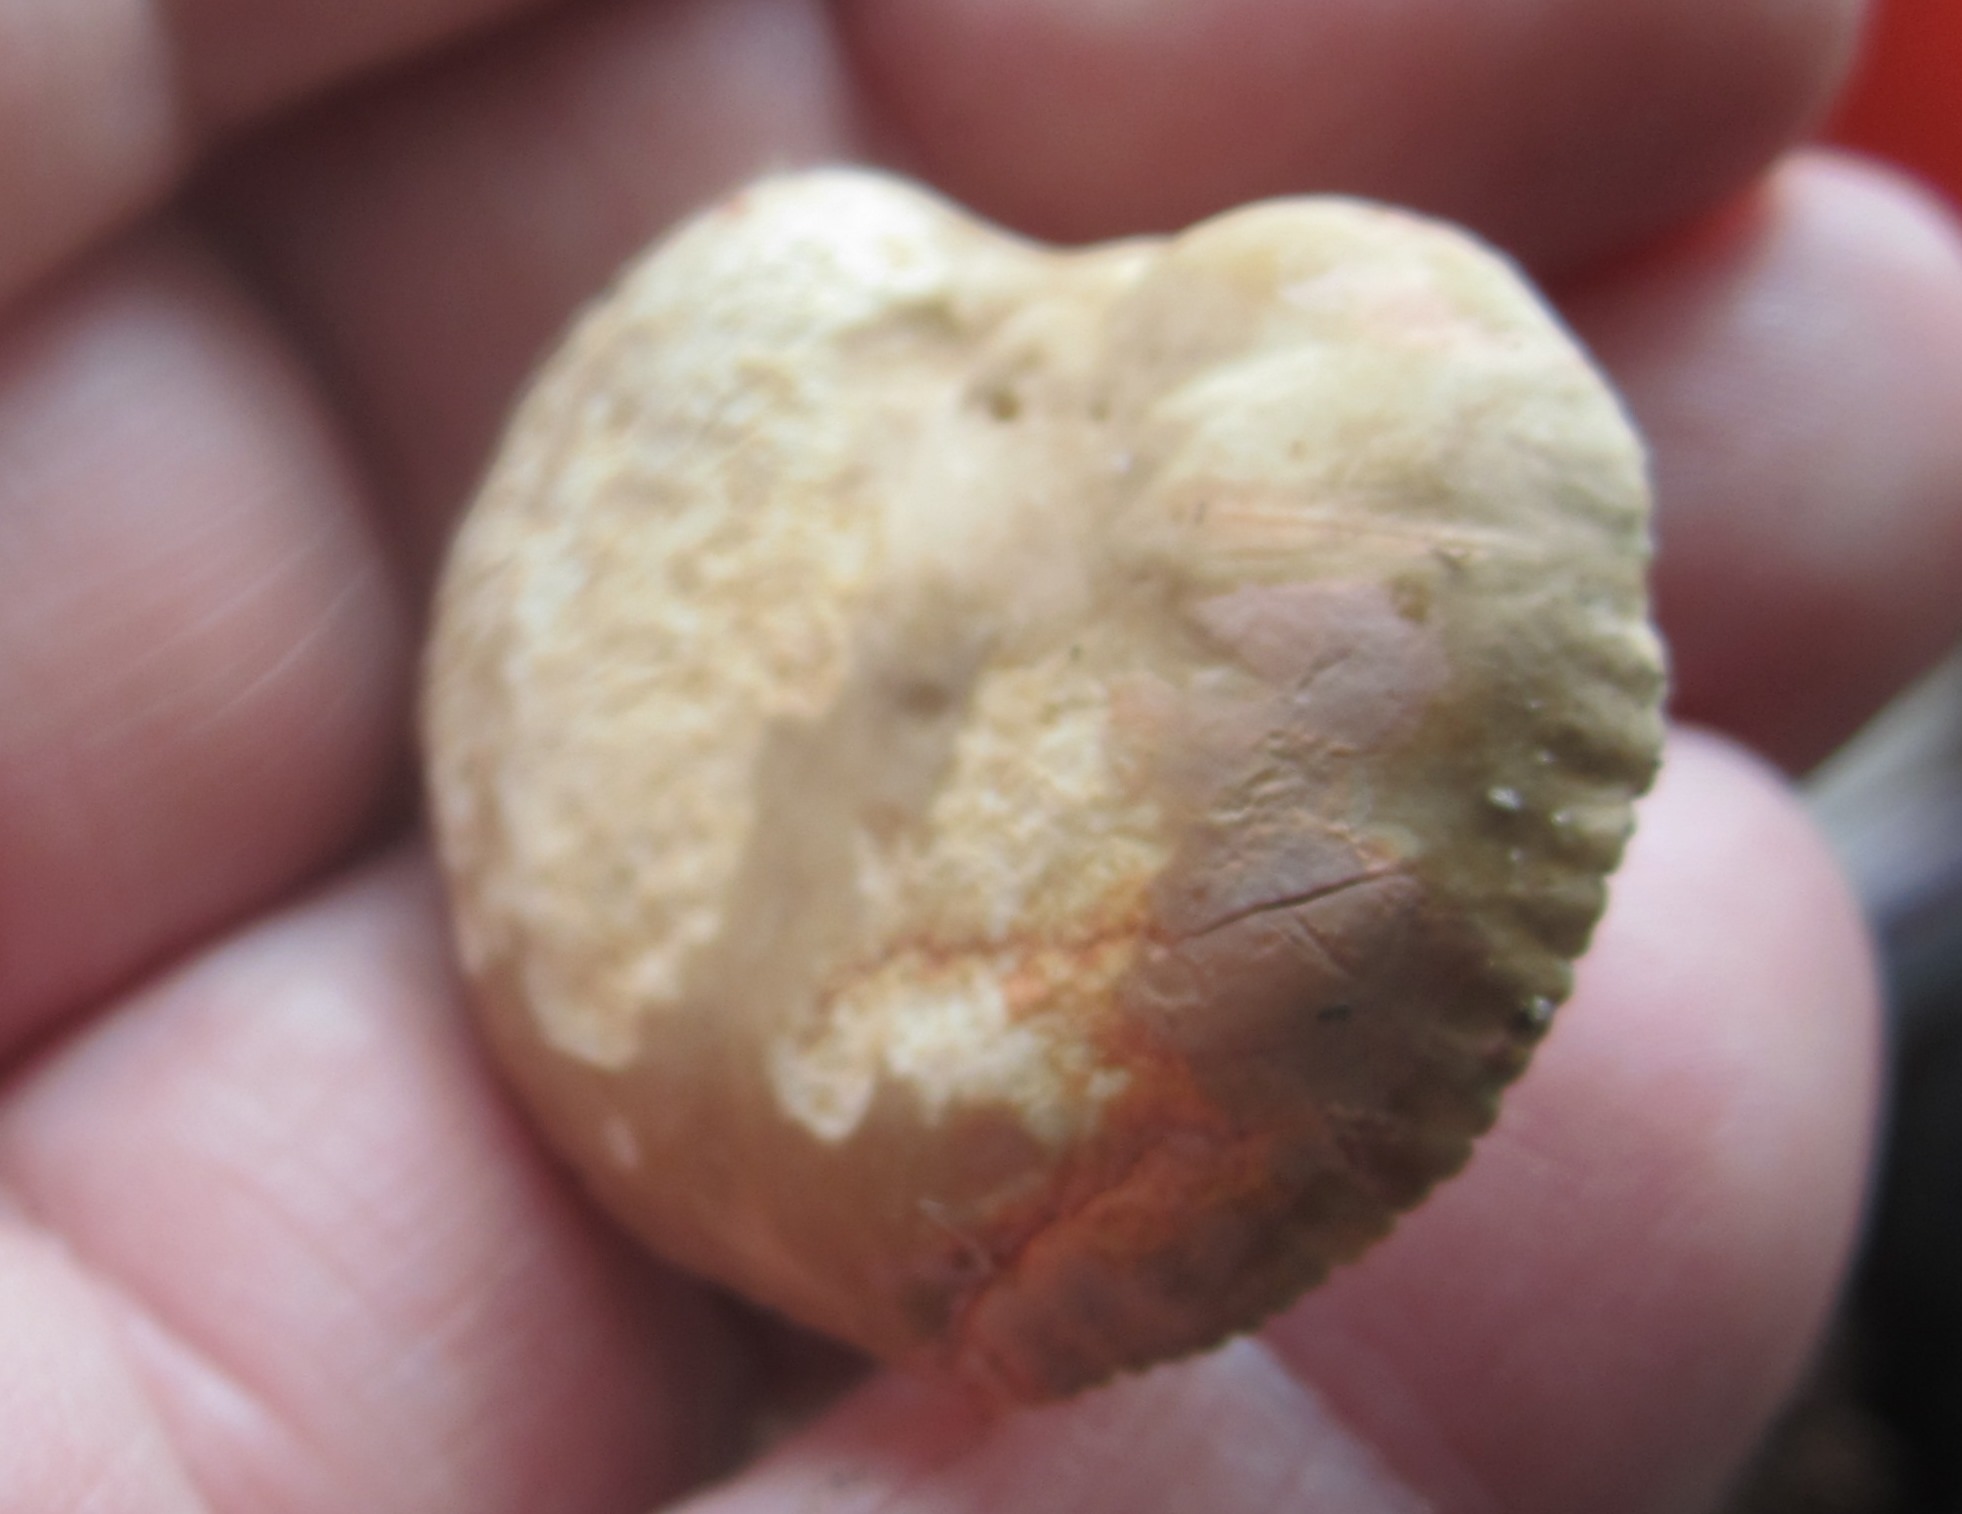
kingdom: Fungi
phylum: Basidiomycota
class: Agaricomycetes
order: Russulales
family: Russulaceae
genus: Lactarius
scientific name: Lactarius azonites
